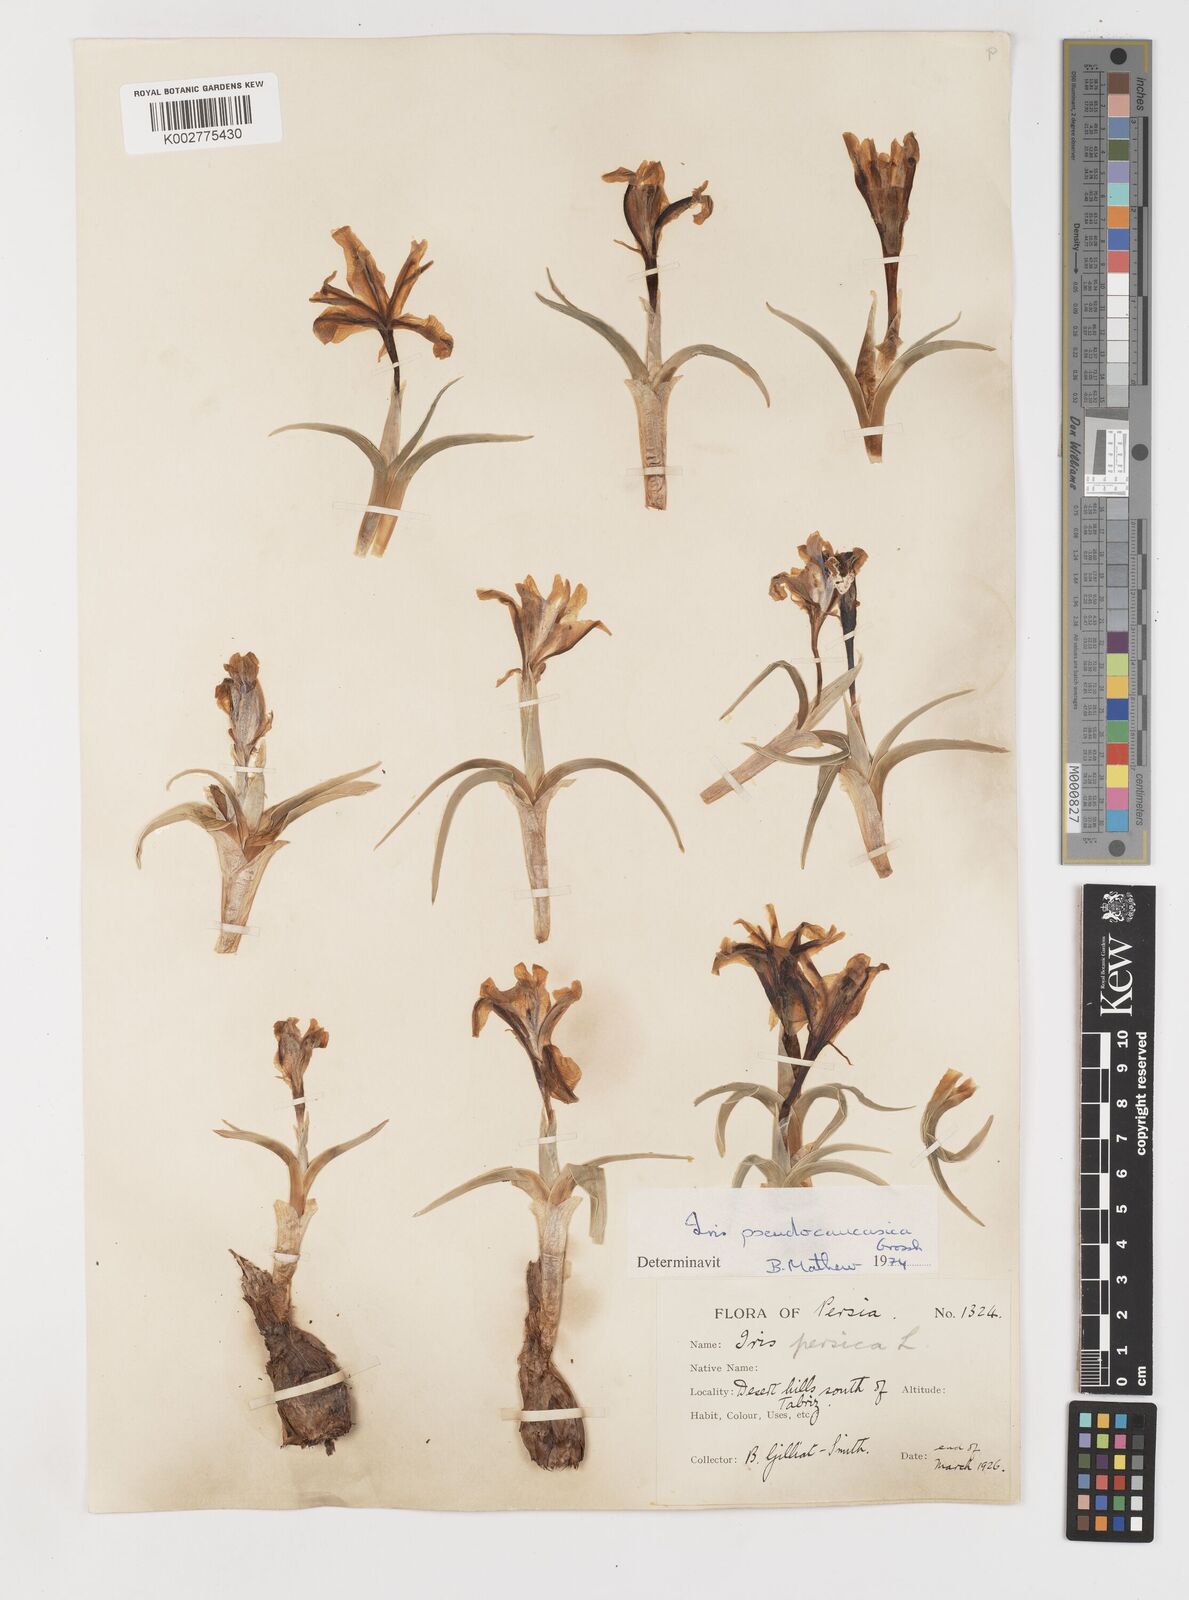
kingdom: Plantae
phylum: Tracheophyta
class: Liliopsida
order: Asparagales
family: Iridaceae
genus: Iris
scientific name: Iris pseudocaucasica
